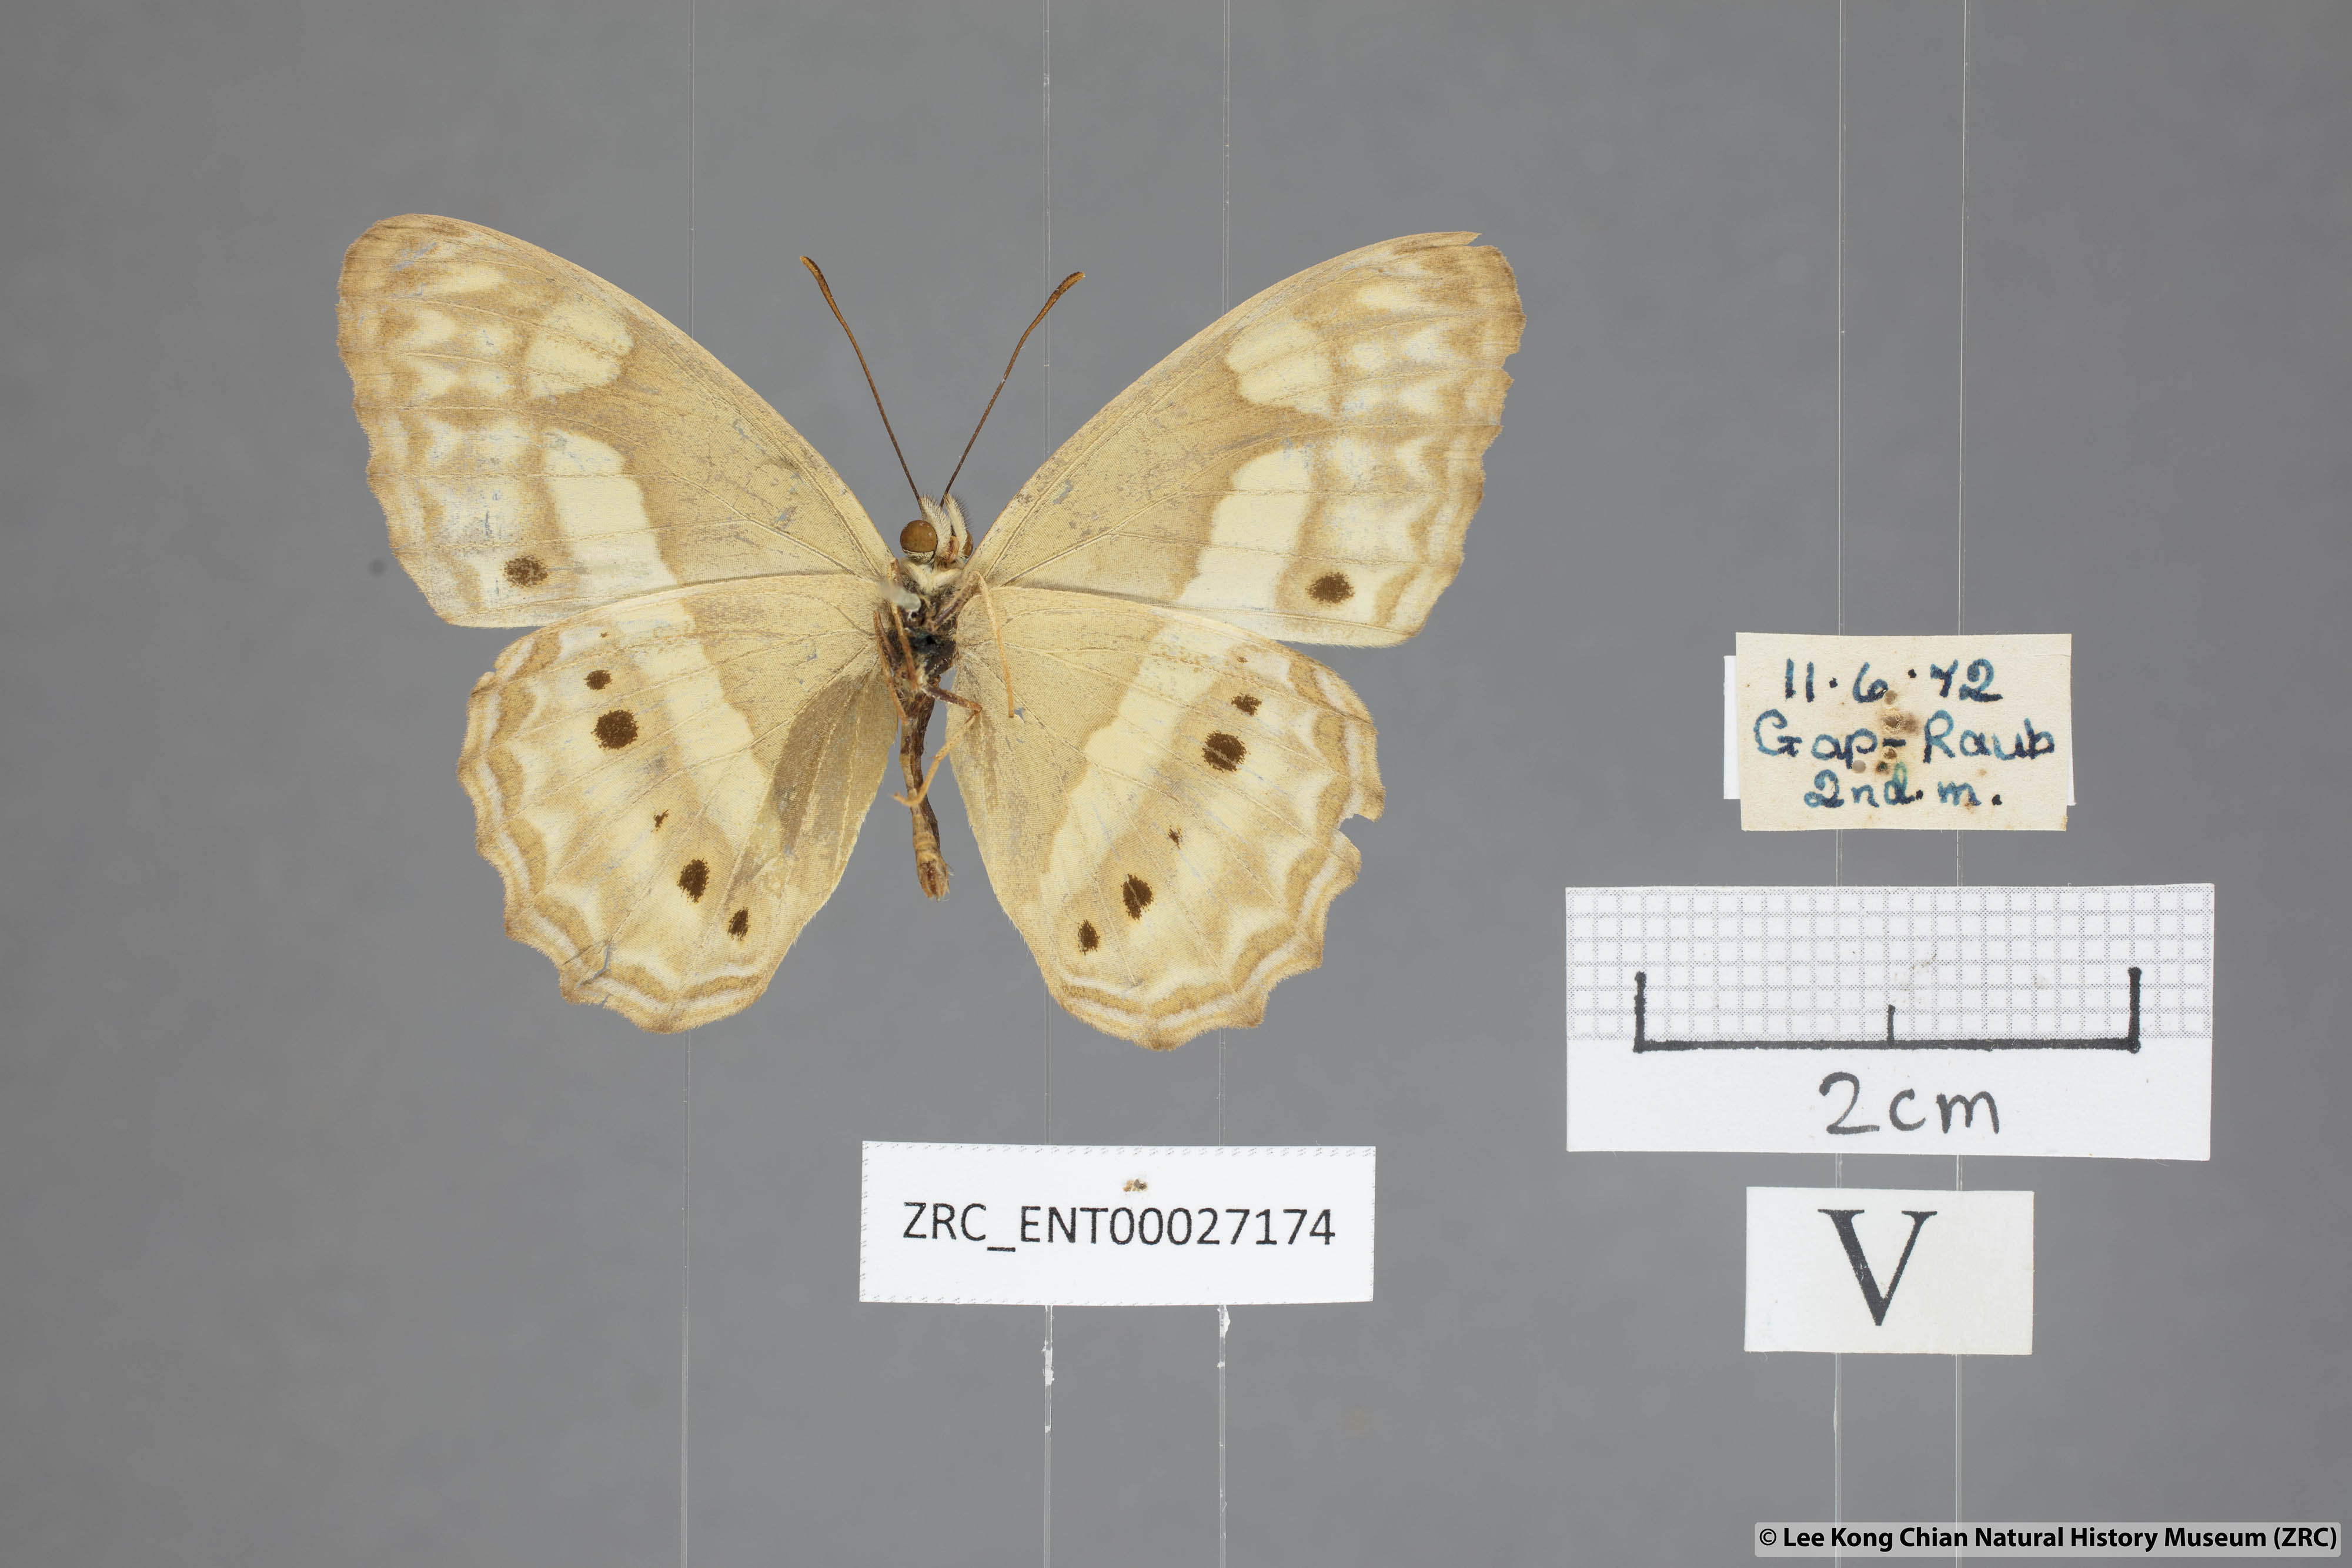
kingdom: Animalia
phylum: Arthropoda
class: Insecta
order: Lepidoptera
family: Nymphalidae
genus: Cirrochroa
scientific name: Cirrochroa fasciata
